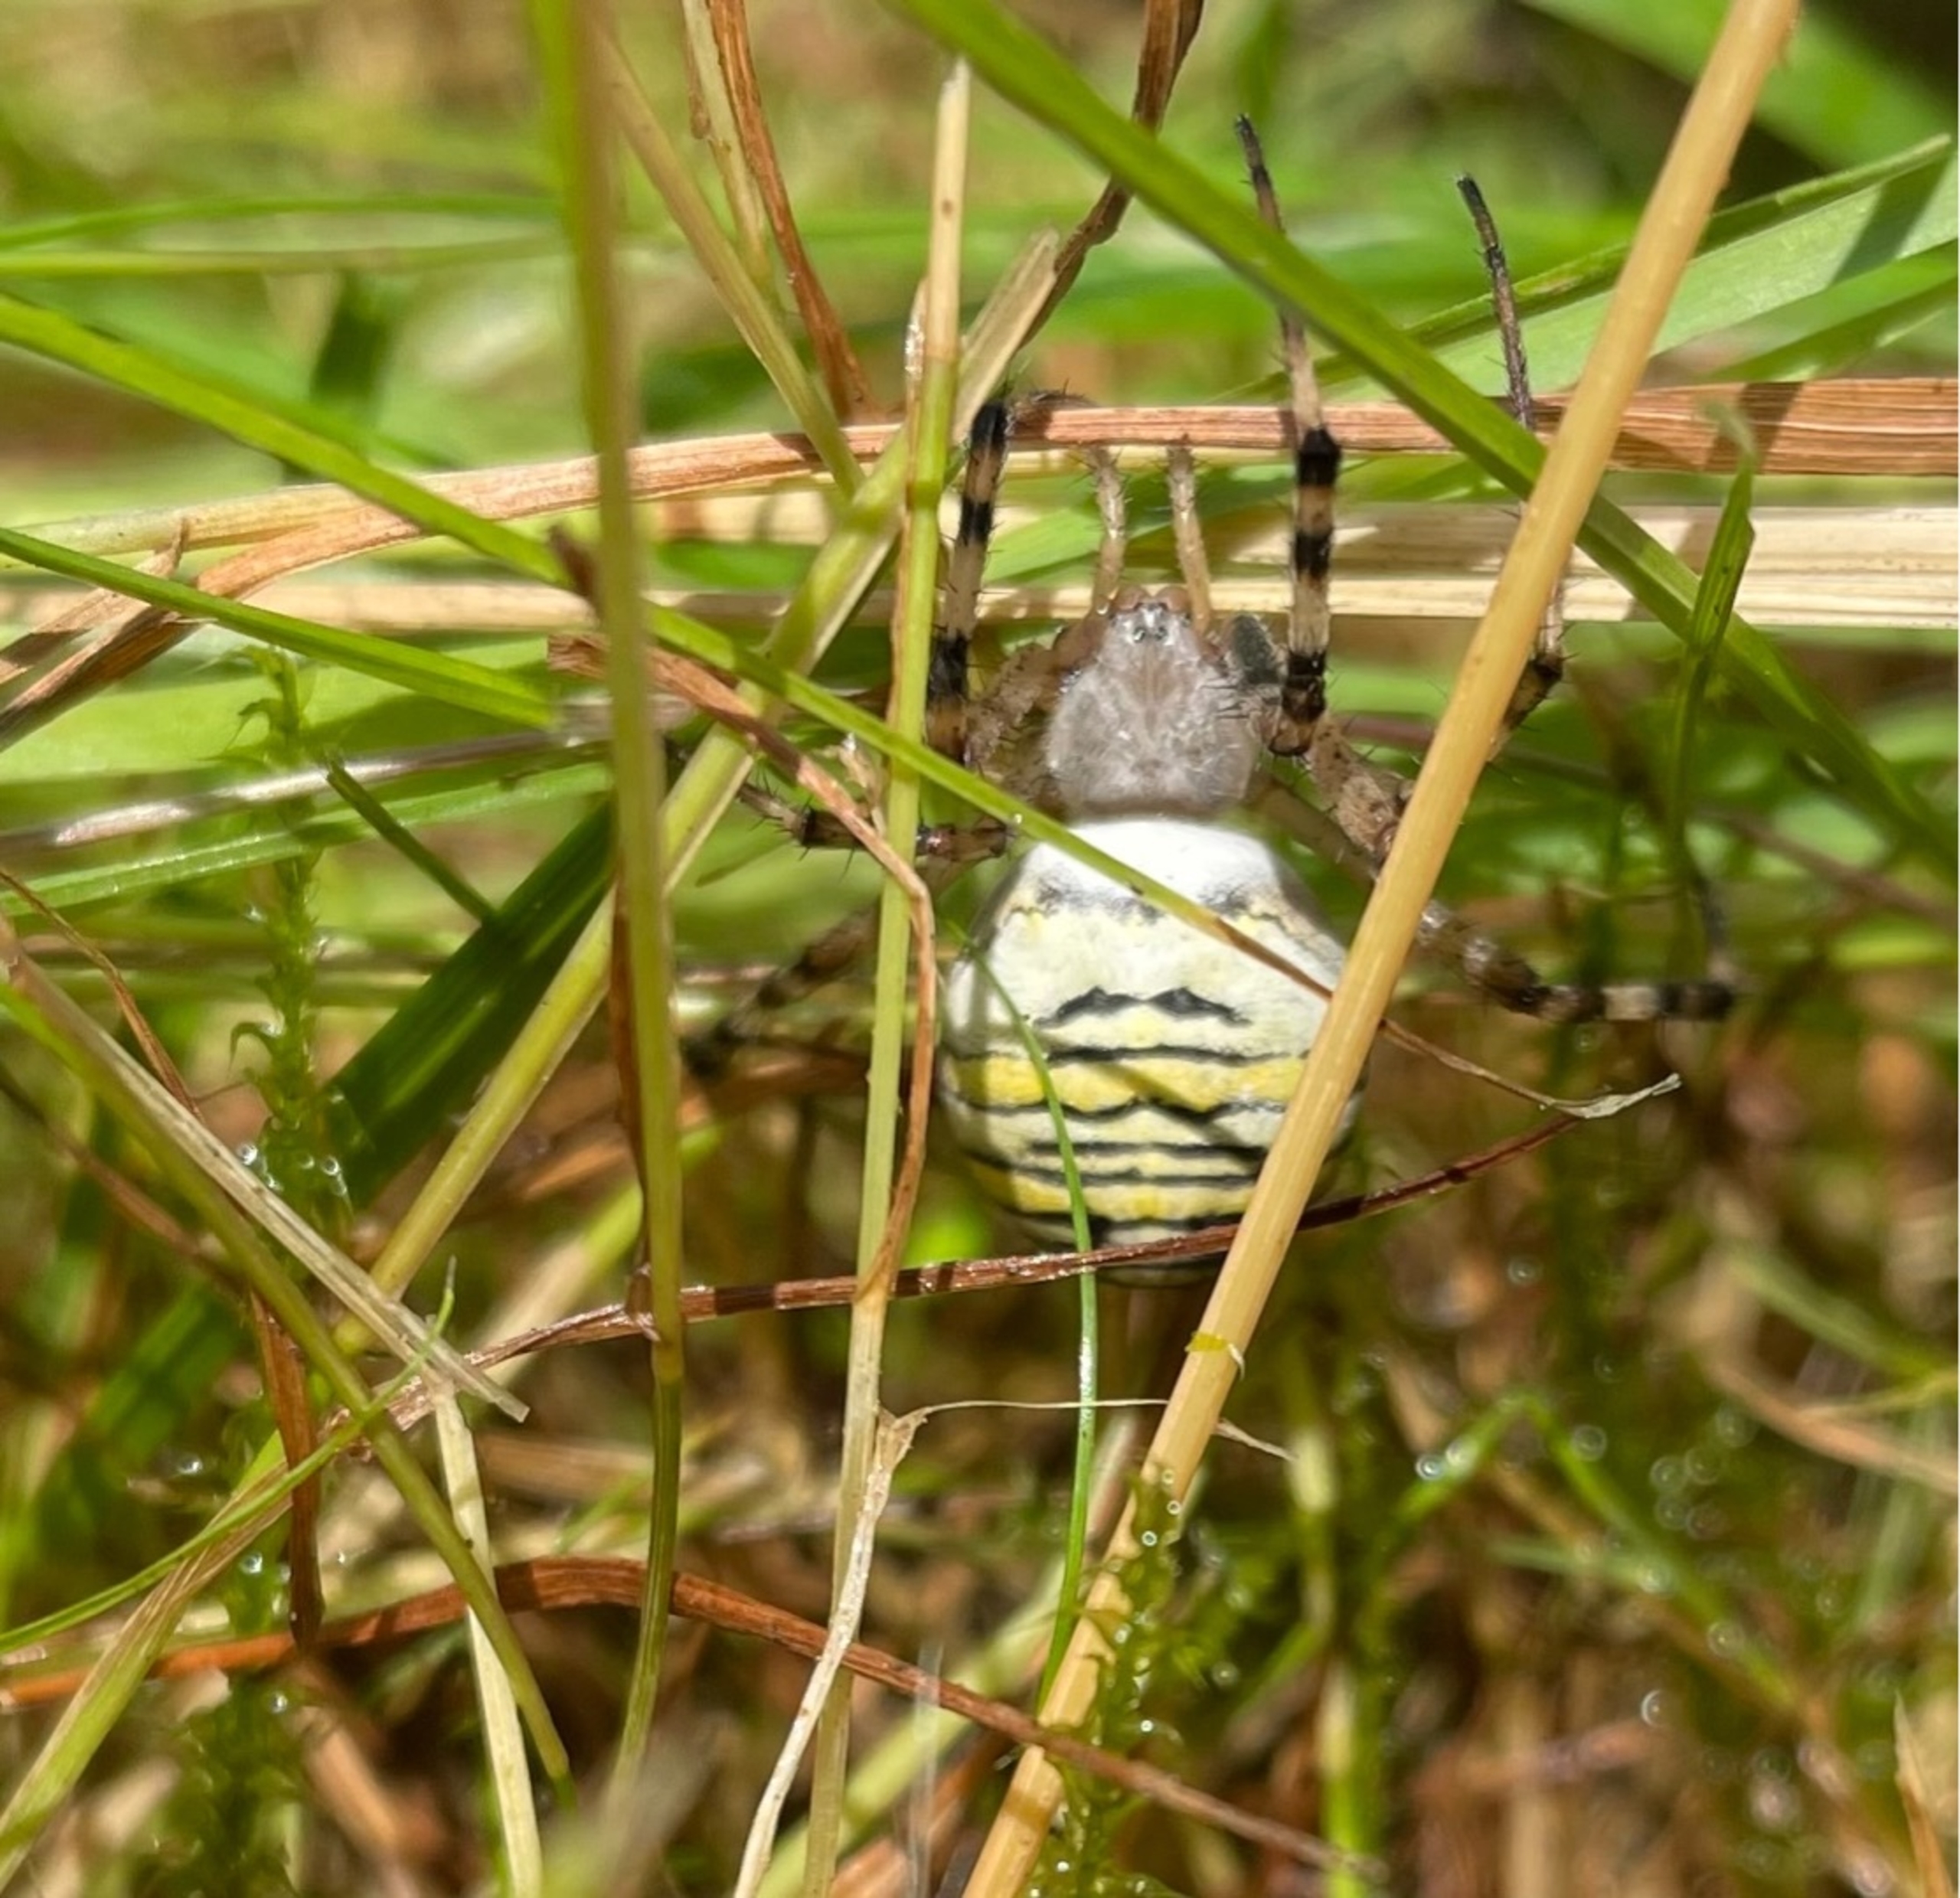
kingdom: Animalia
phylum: Arthropoda
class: Arachnida
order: Araneae
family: Araneidae
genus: Argiope
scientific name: Argiope bruennichi
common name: Hvepseedderkop
